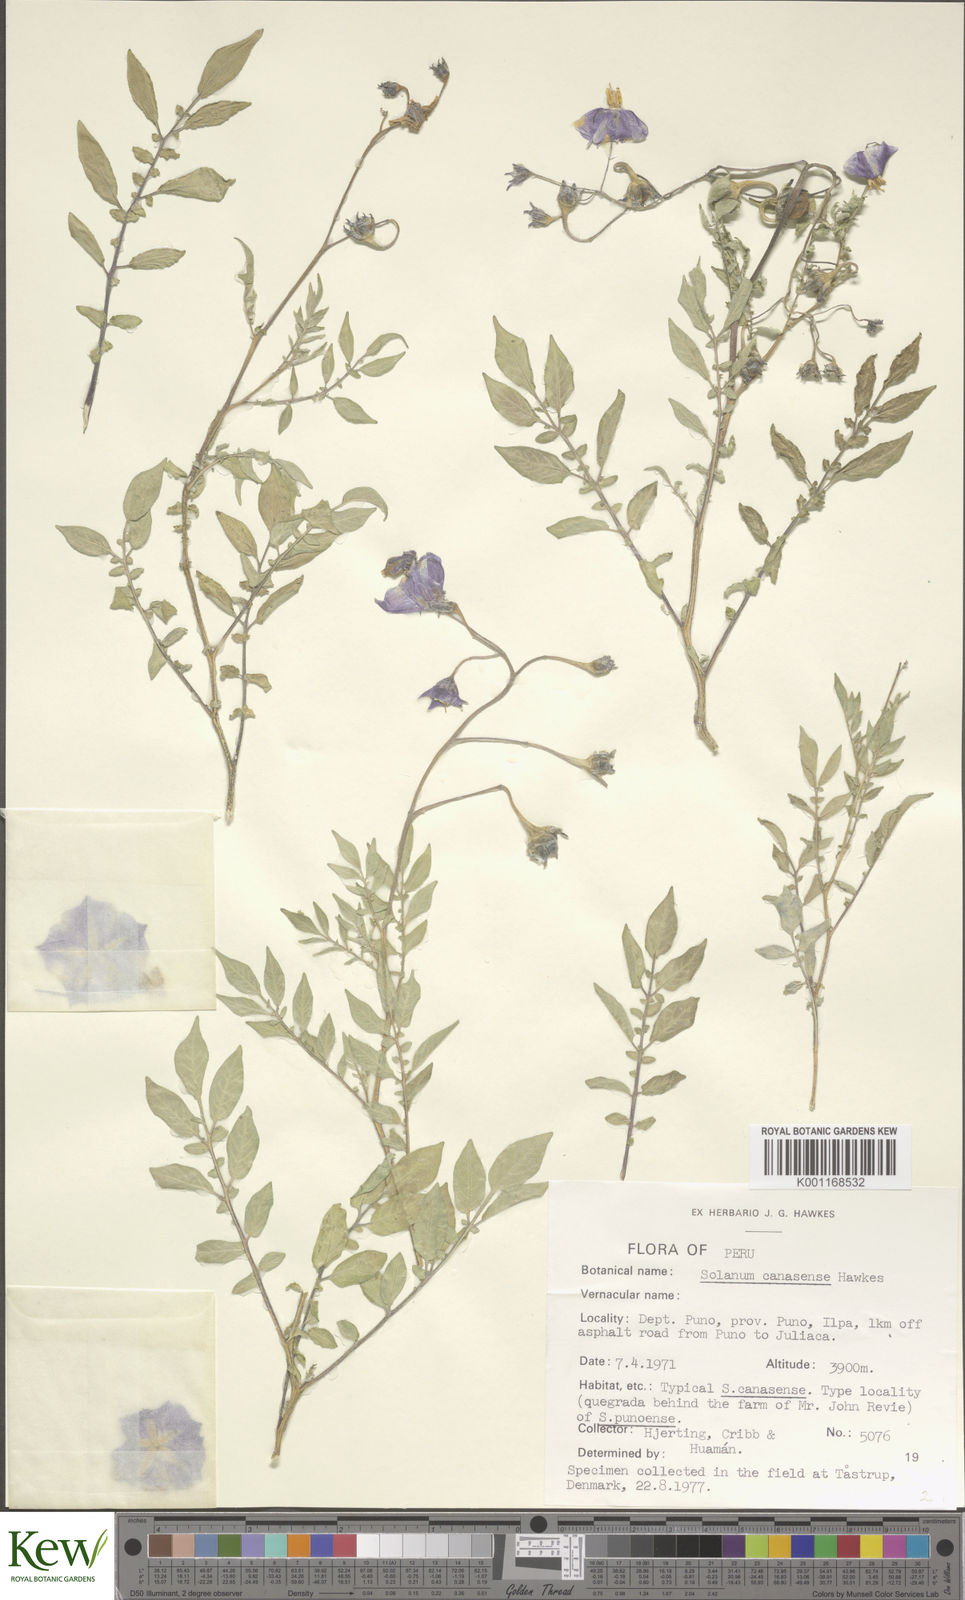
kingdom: Plantae
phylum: Tracheophyta
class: Magnoliopsida
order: Solanales
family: Solanaceae
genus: Solanum
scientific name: Solanum candolleanum
